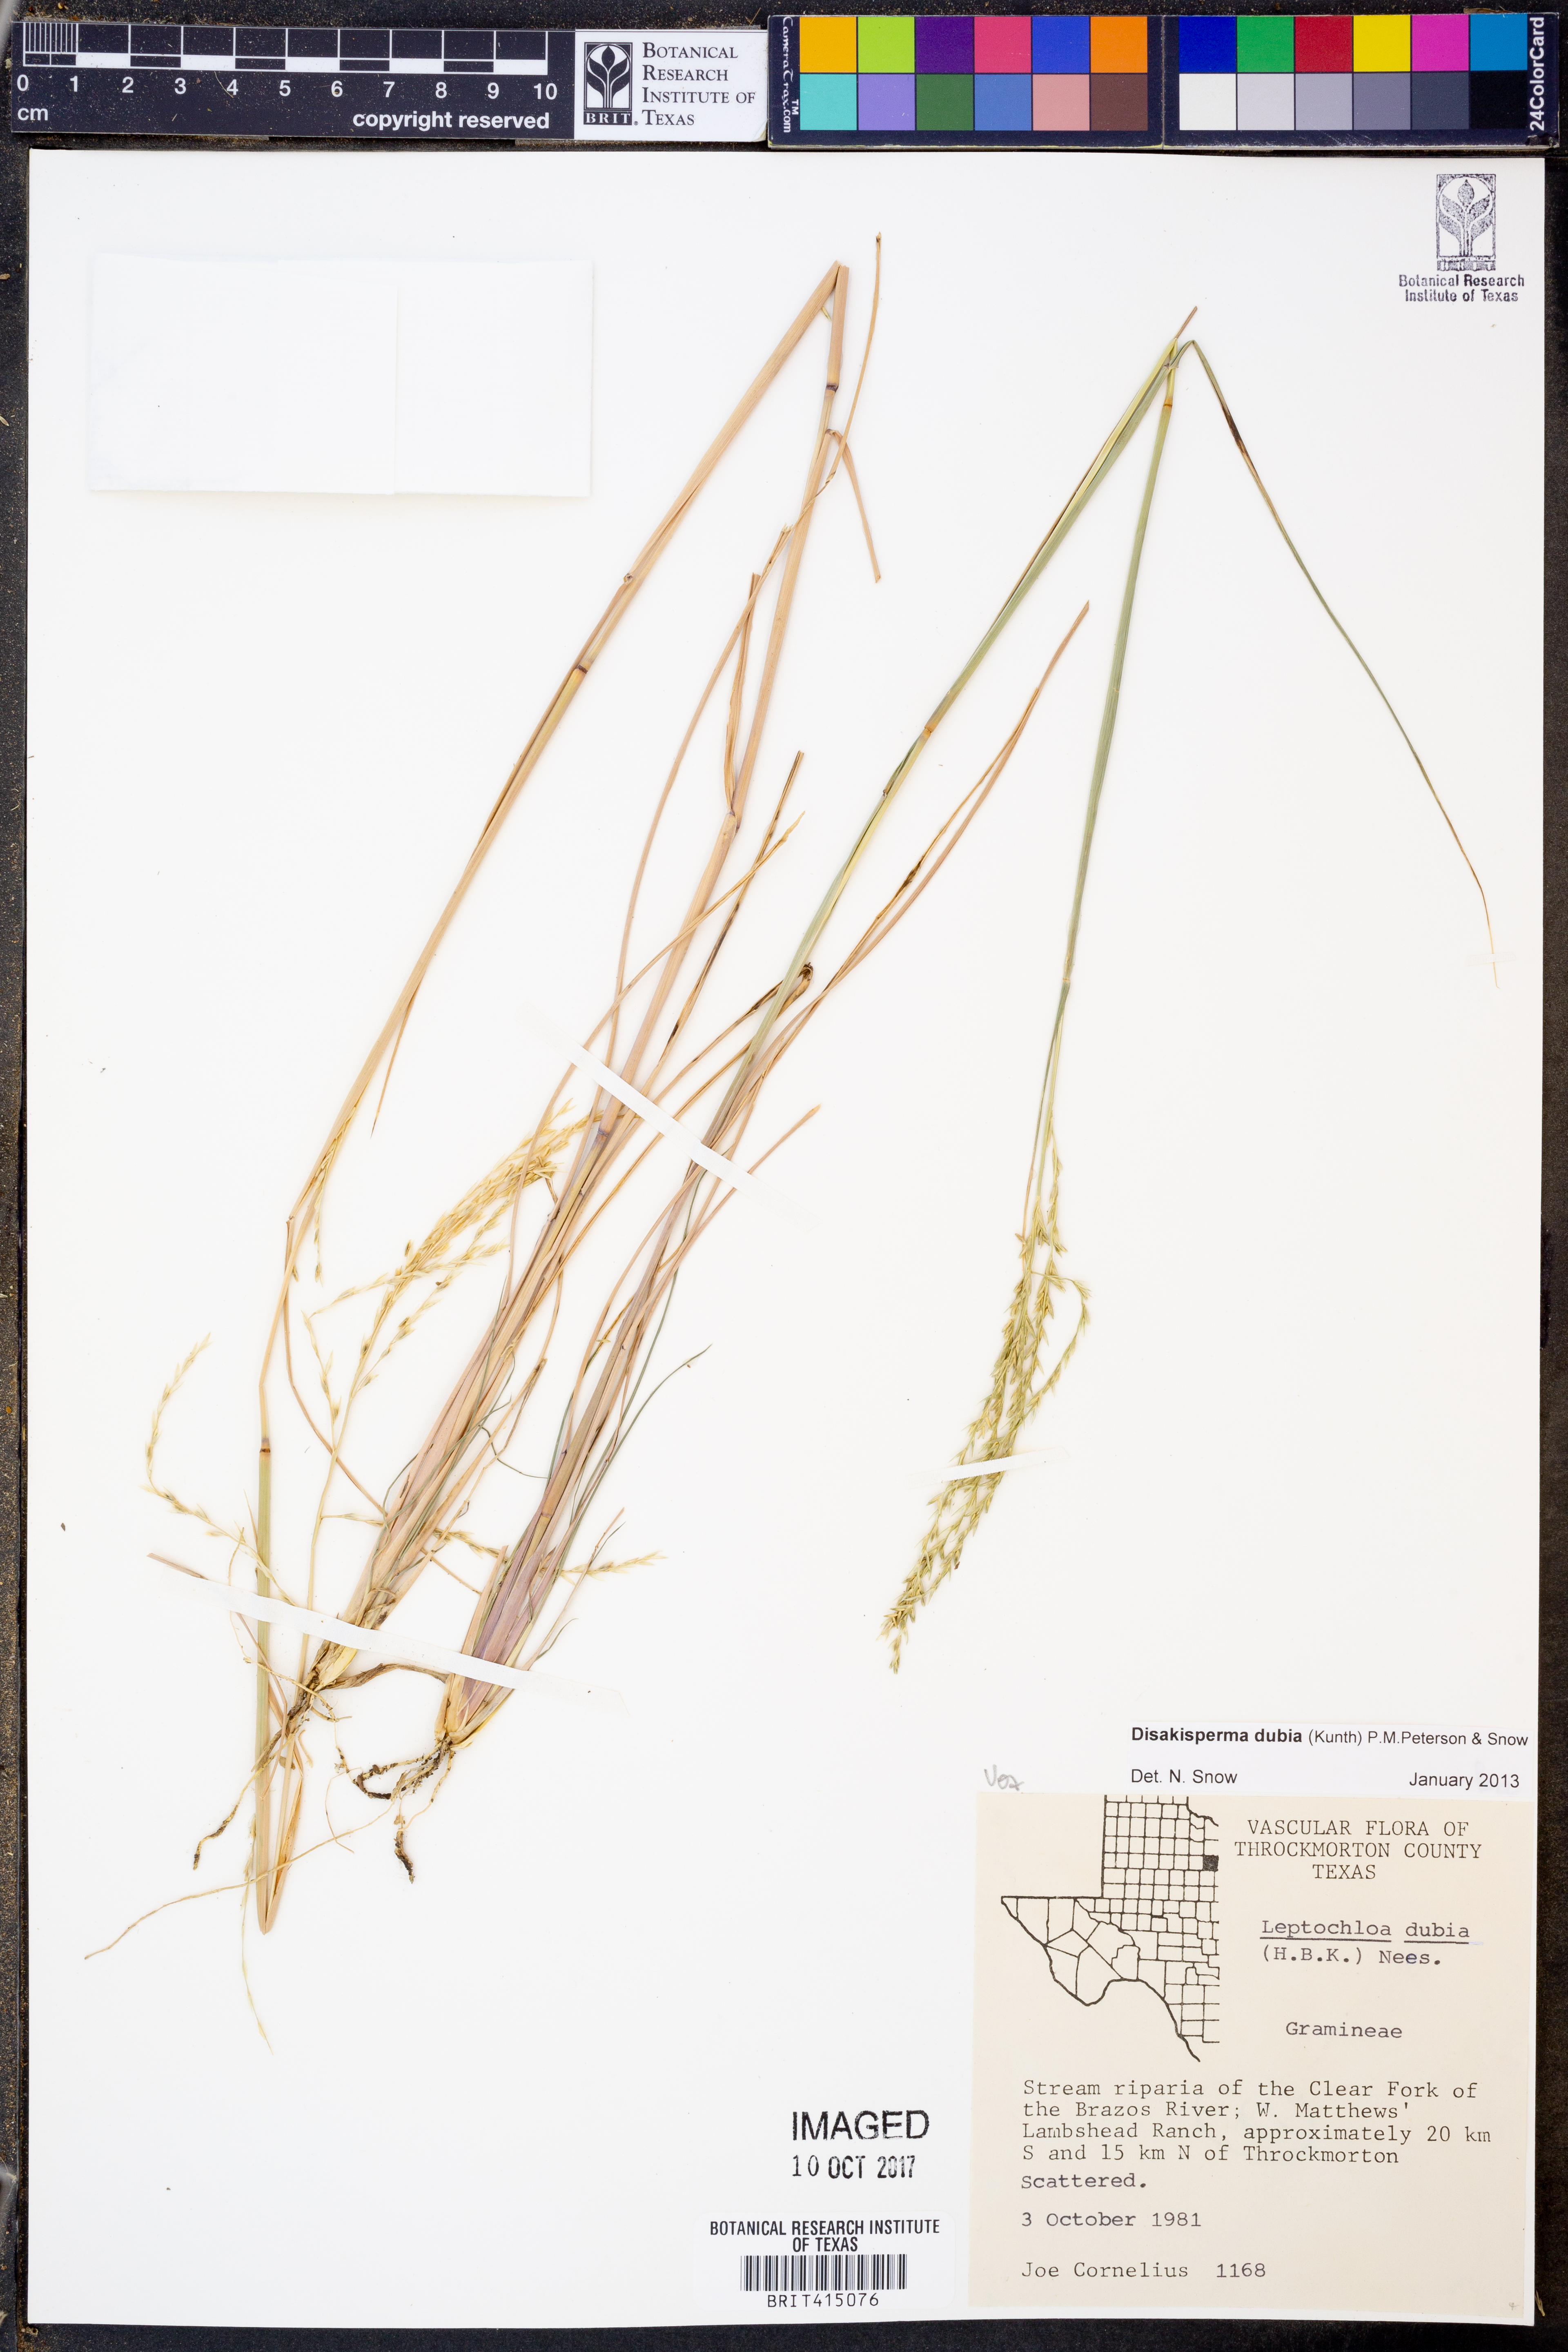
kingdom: Plantae
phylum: Tracheophyta
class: Liliopsida
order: Poales
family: Poaceae
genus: Disakisperma
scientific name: Disakisperma dubium
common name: Green sprangletop
